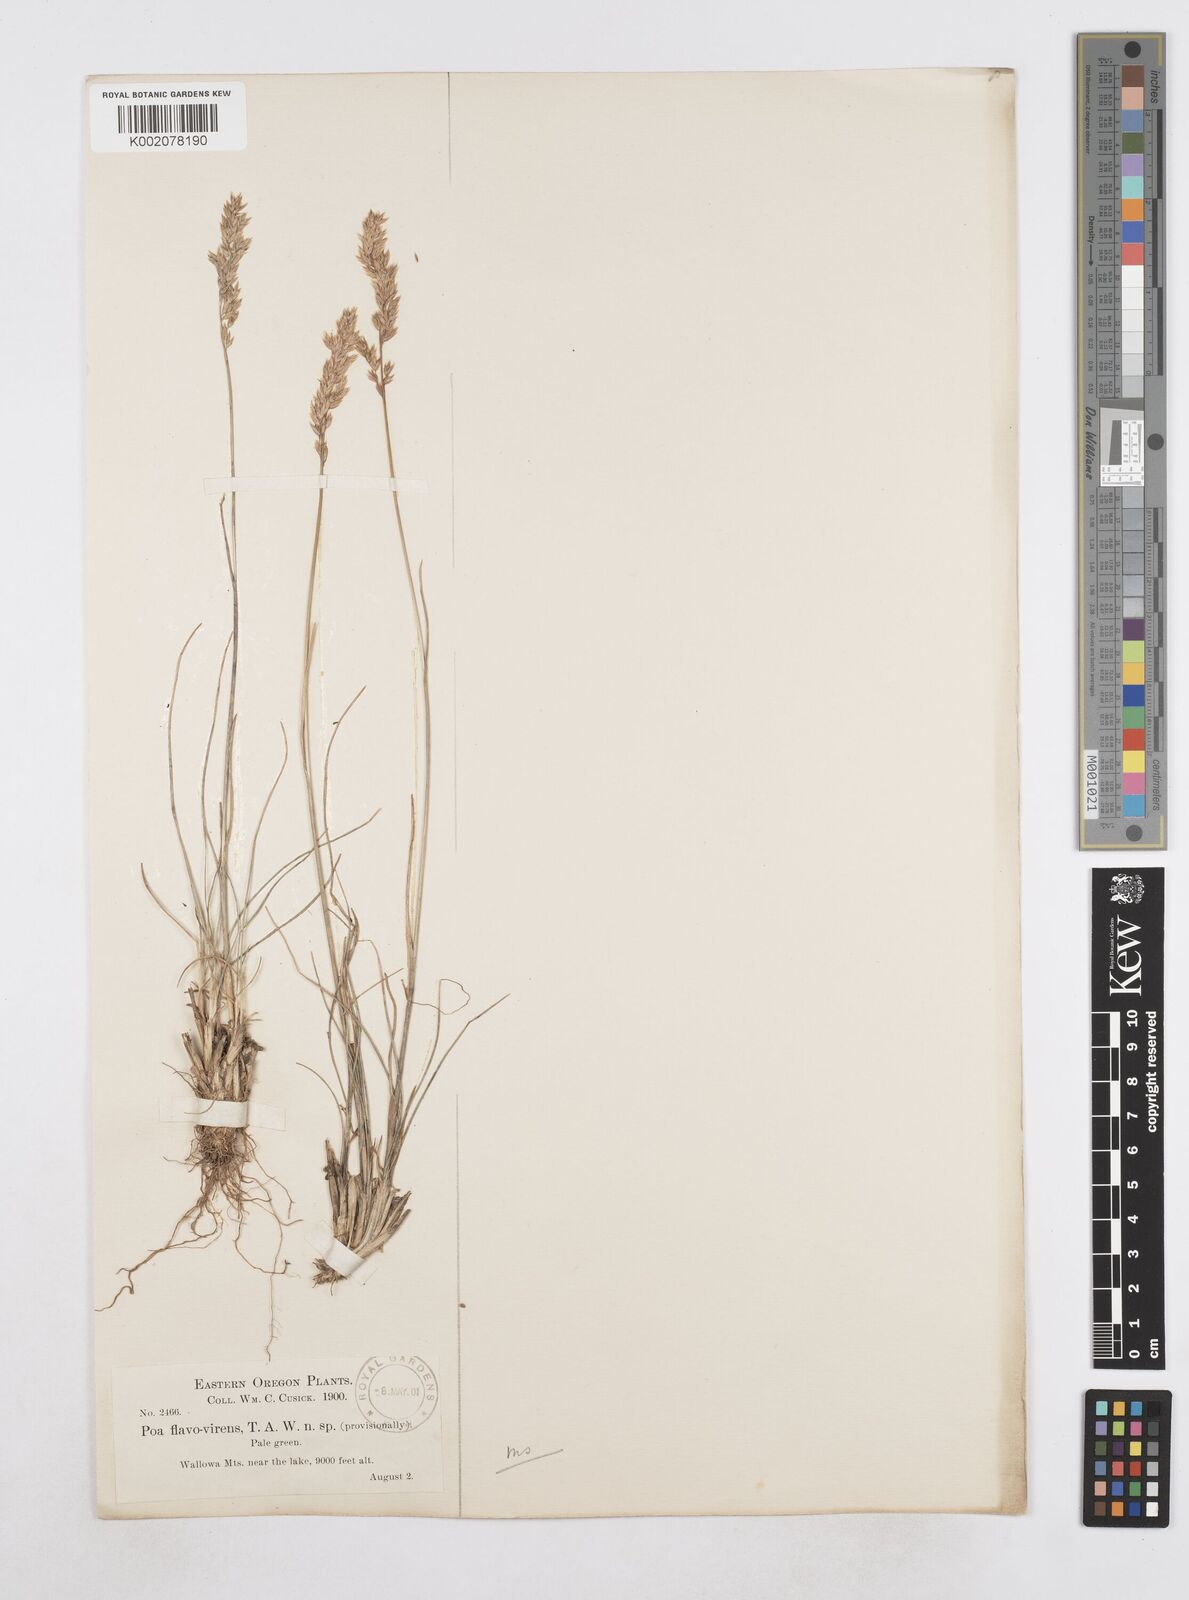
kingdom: Plantae
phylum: Tracheophyta
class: Liliopsida
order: Poales
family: Poaceae
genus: Poa
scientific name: Poa
